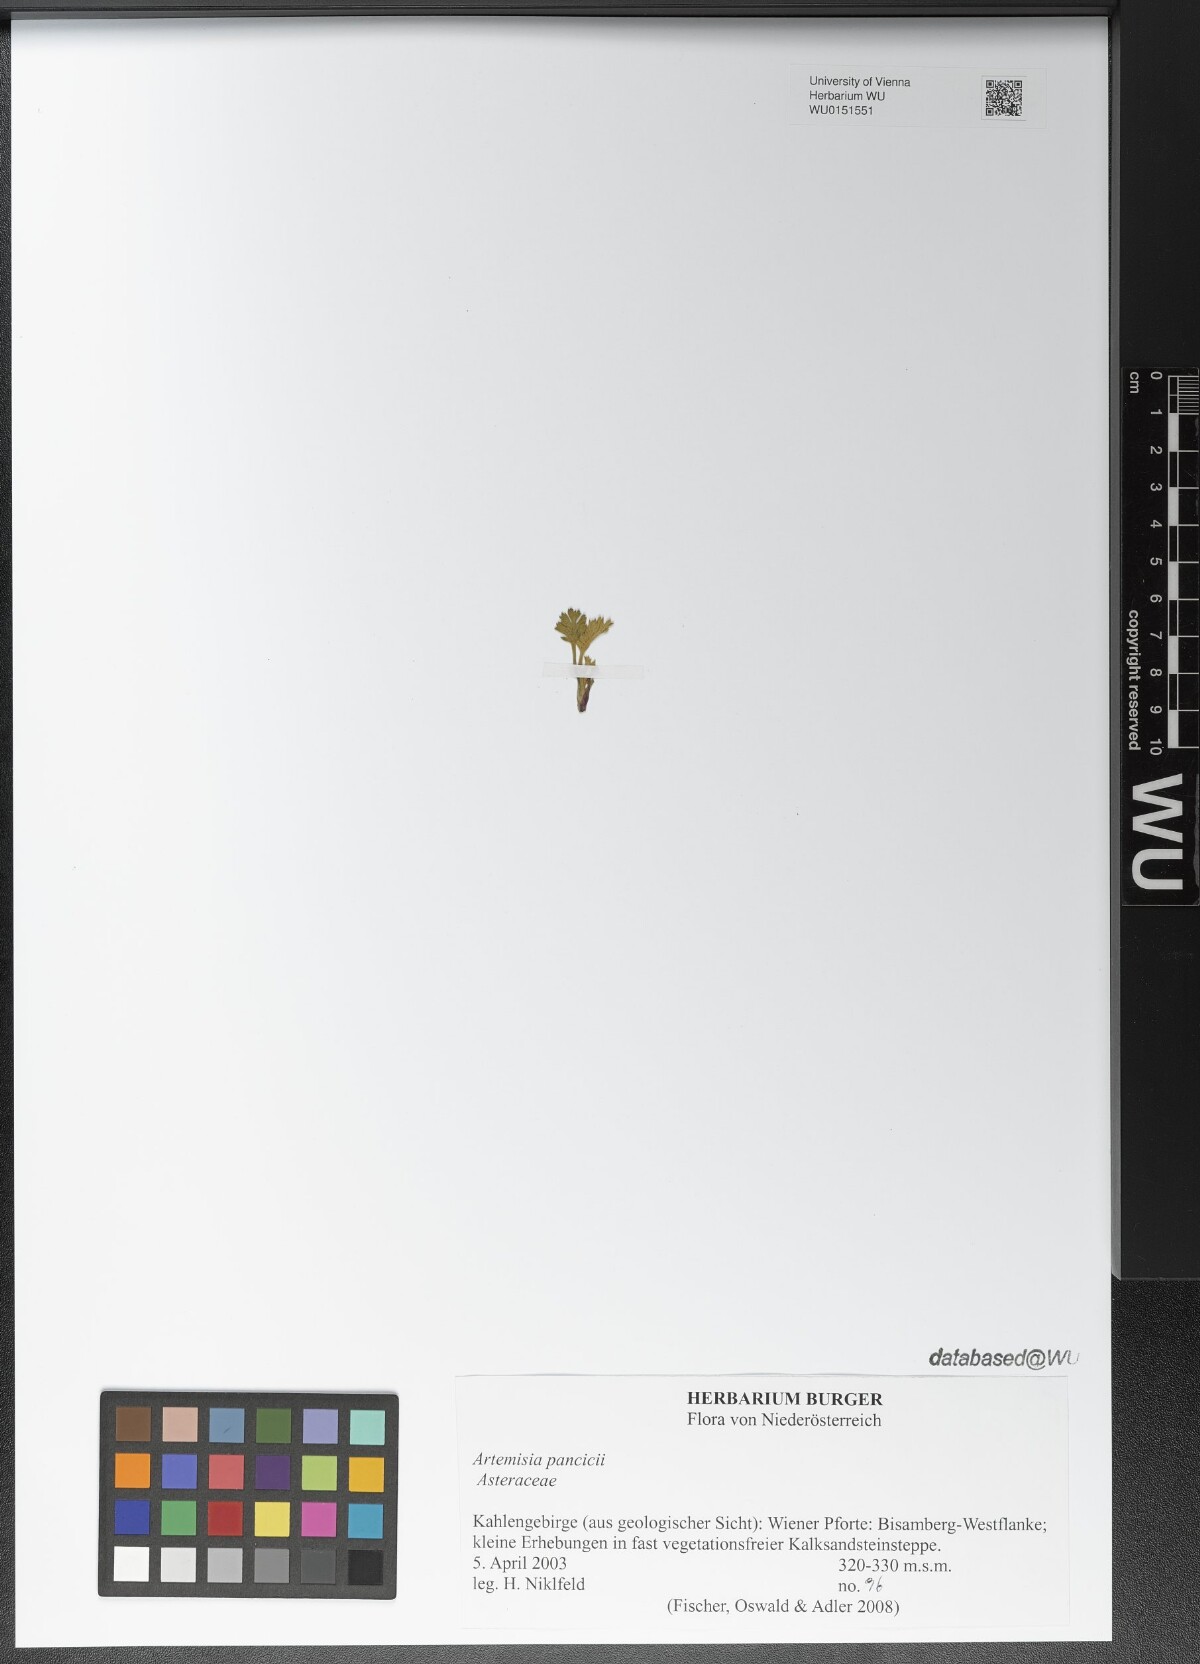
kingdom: Plantae
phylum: Tracheophyta
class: Magnoliopsida
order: Asterales
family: Asteraceae
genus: Artemisia
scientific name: Artemisia pancicii
